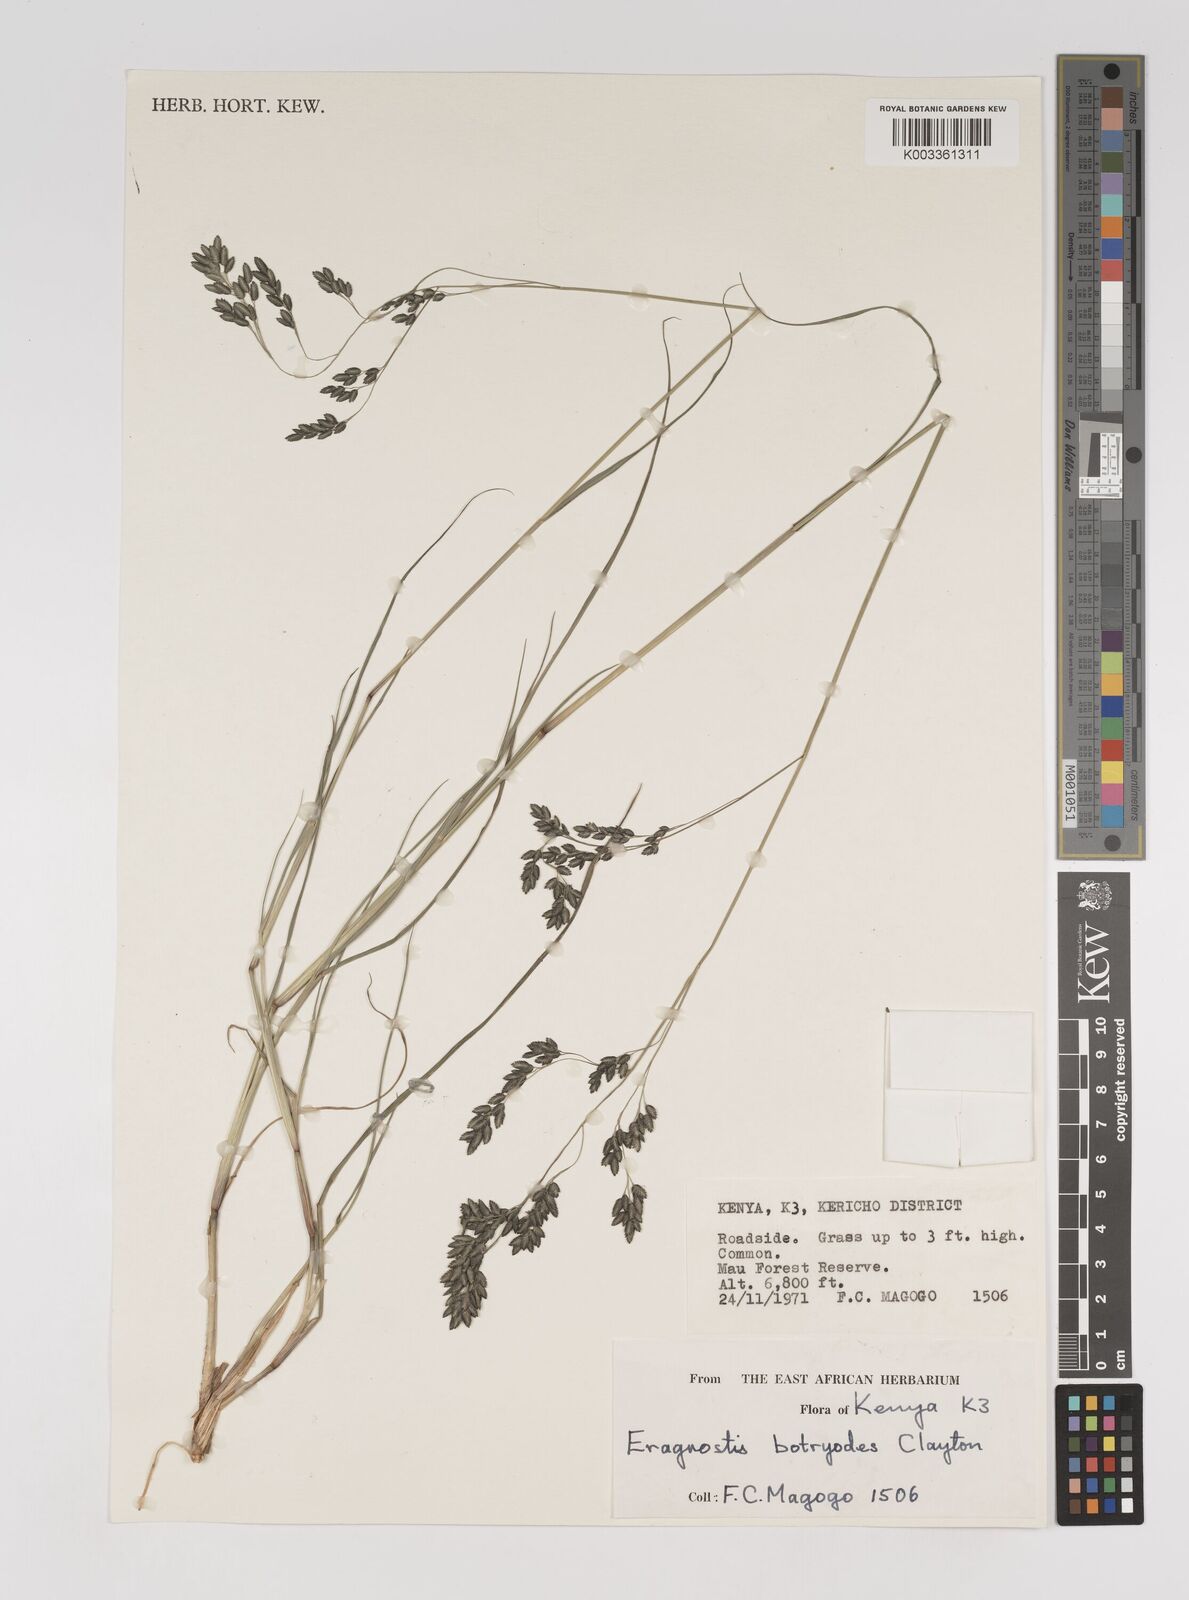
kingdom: Plantae
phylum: Tracheophyta
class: Liliopsida
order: Poales
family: Poaceae
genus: Eragrostis
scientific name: Eragrostis botryodes
